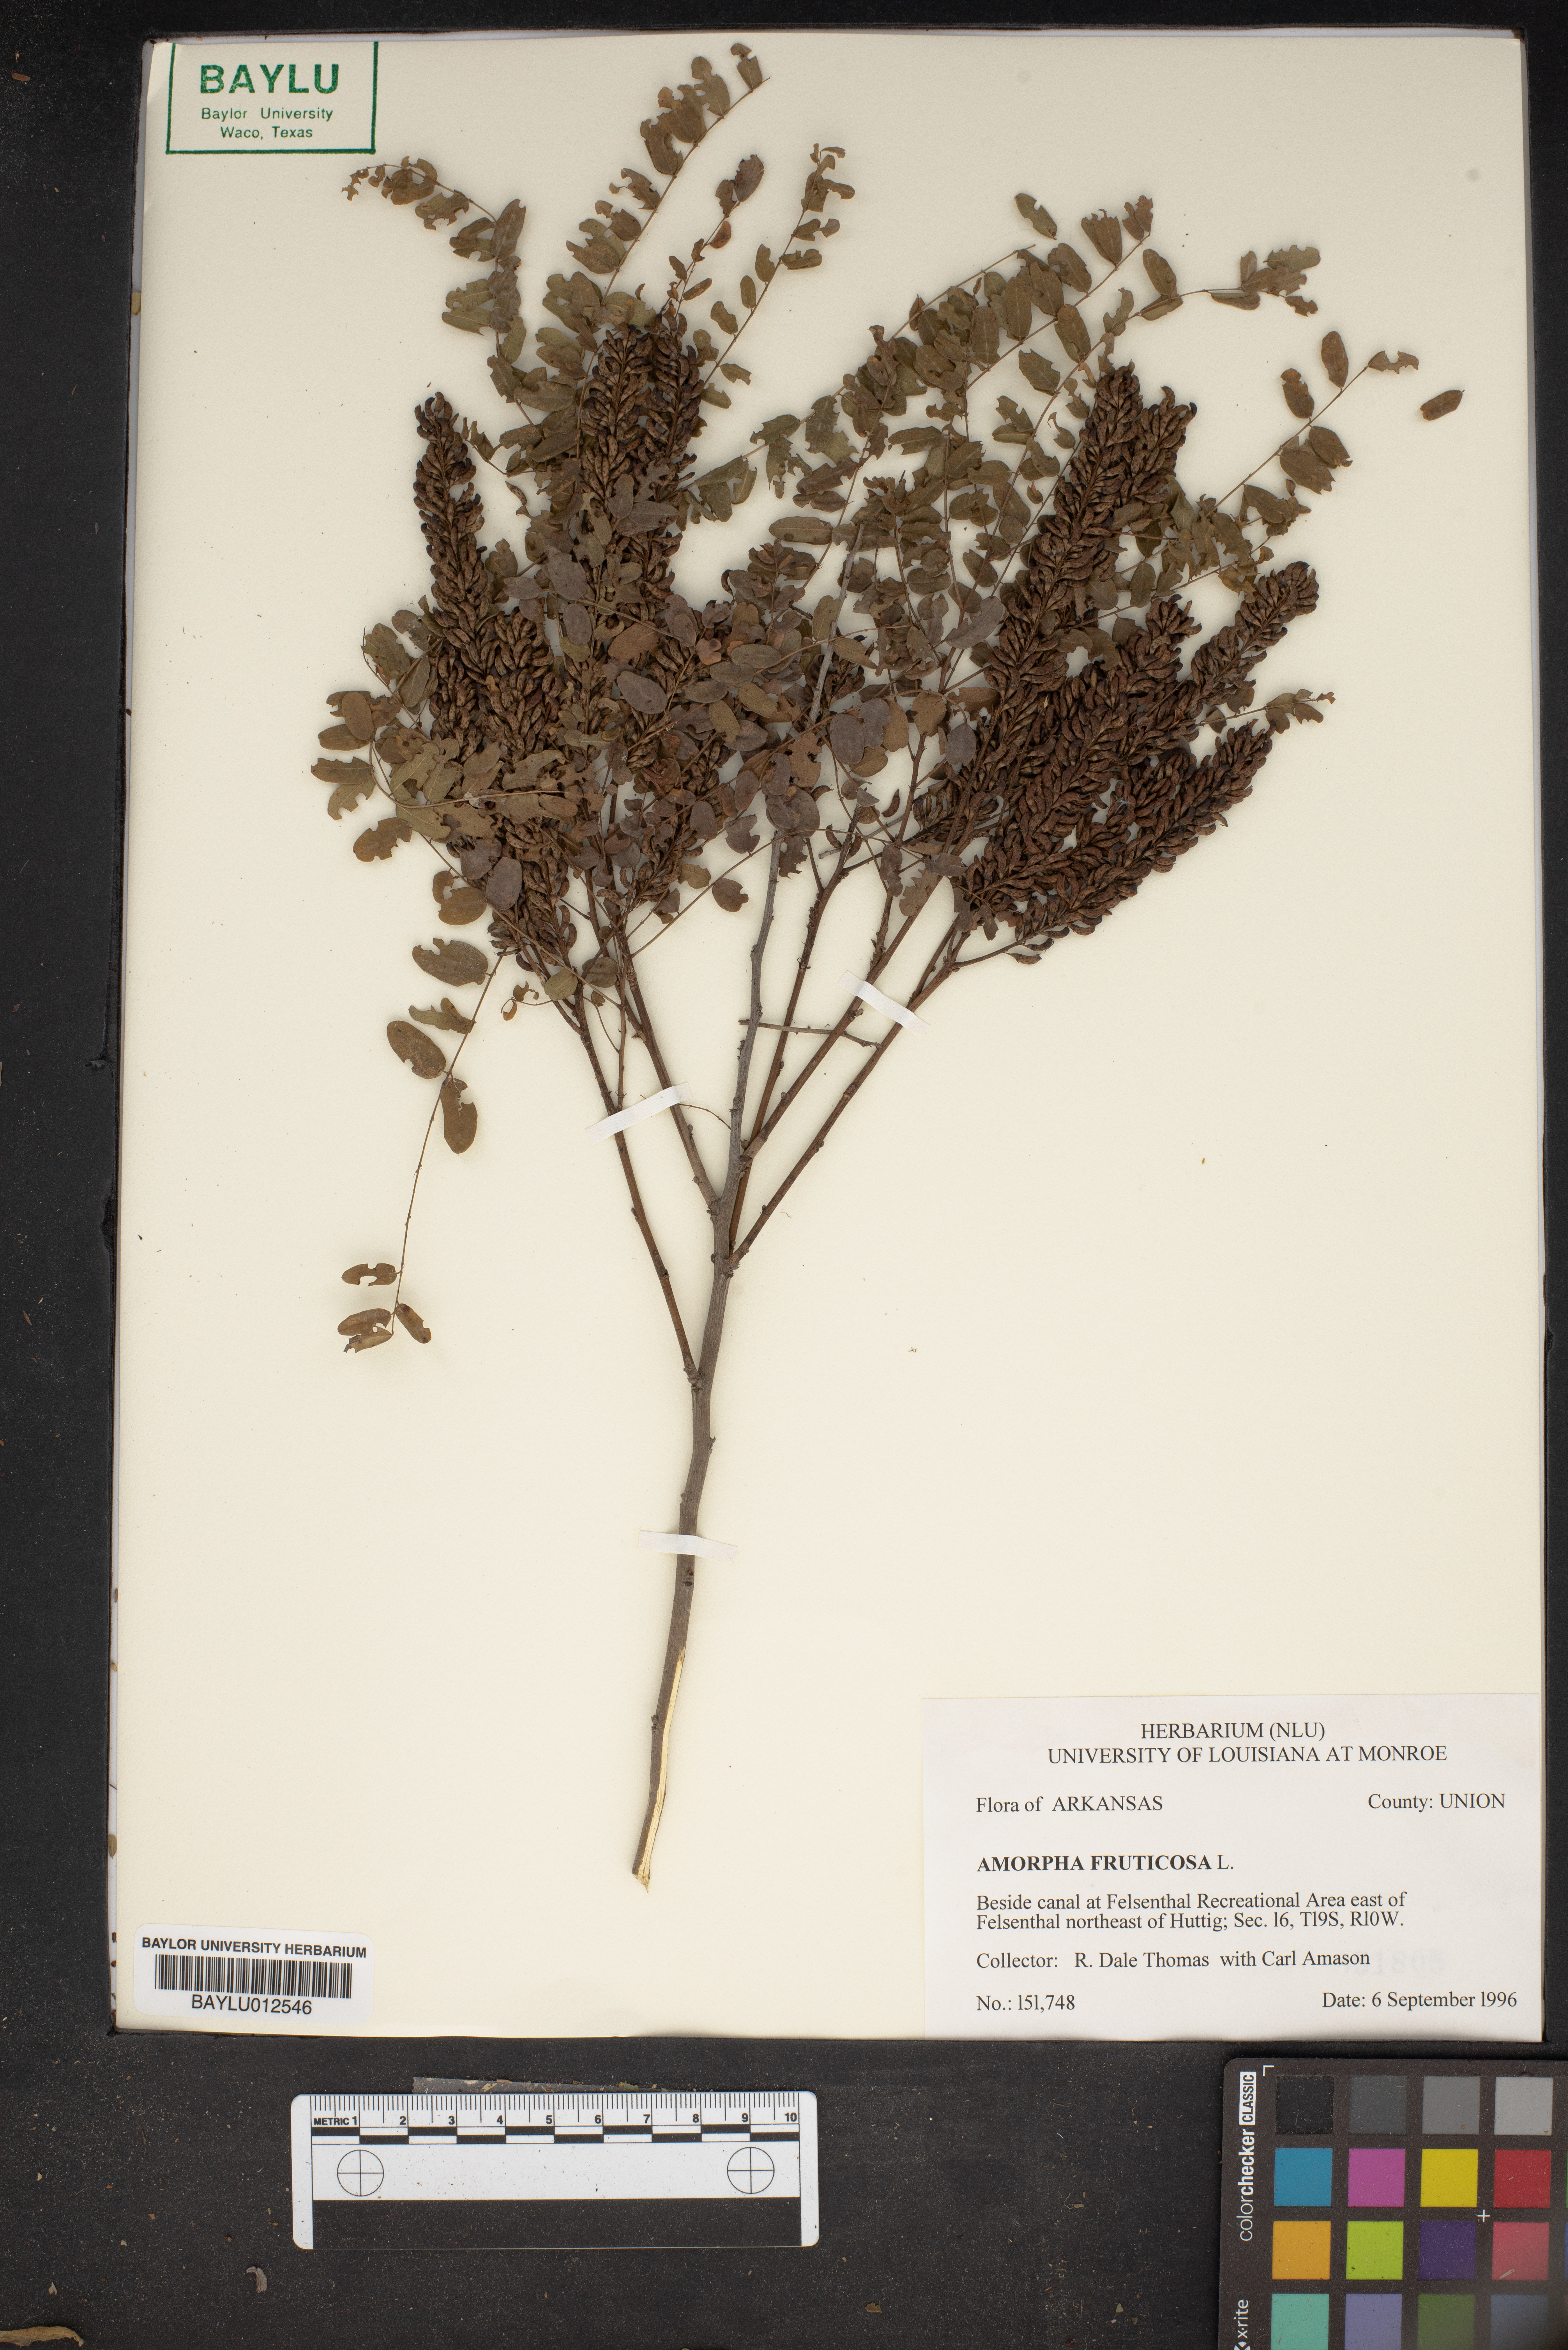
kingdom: Plantae
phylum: Tracheophyta
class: Magnoliopsida
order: Fabales
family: Fabaceae
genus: Amorpha
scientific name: Amorpha fruticosa
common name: False indigo
